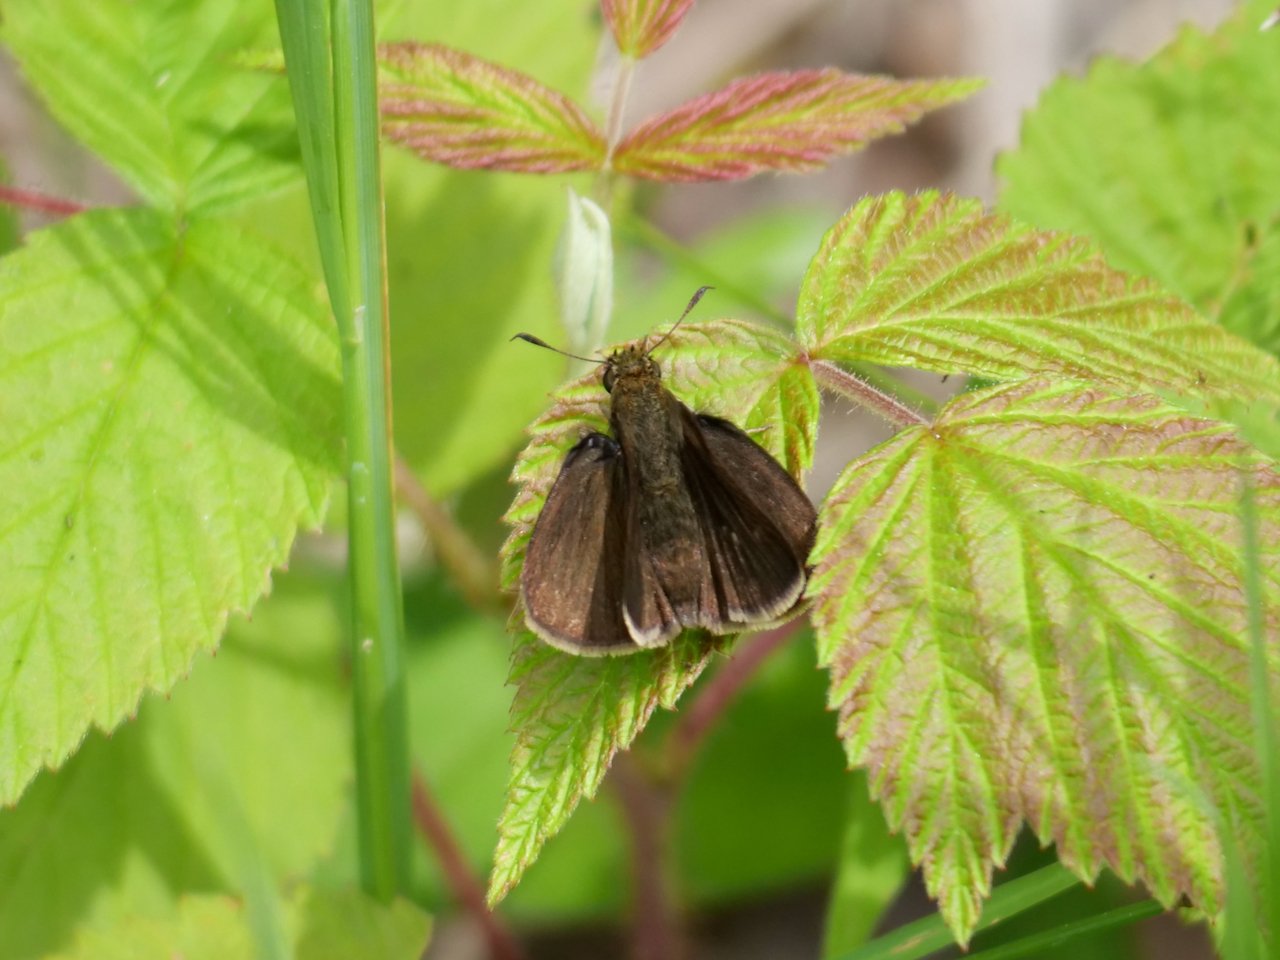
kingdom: Animalia
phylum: Arthropoda
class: Insecta
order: Lepidoptera
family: Hesperiidae
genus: Euphyes
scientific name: Euphyes vestris
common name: Dun Skipper
